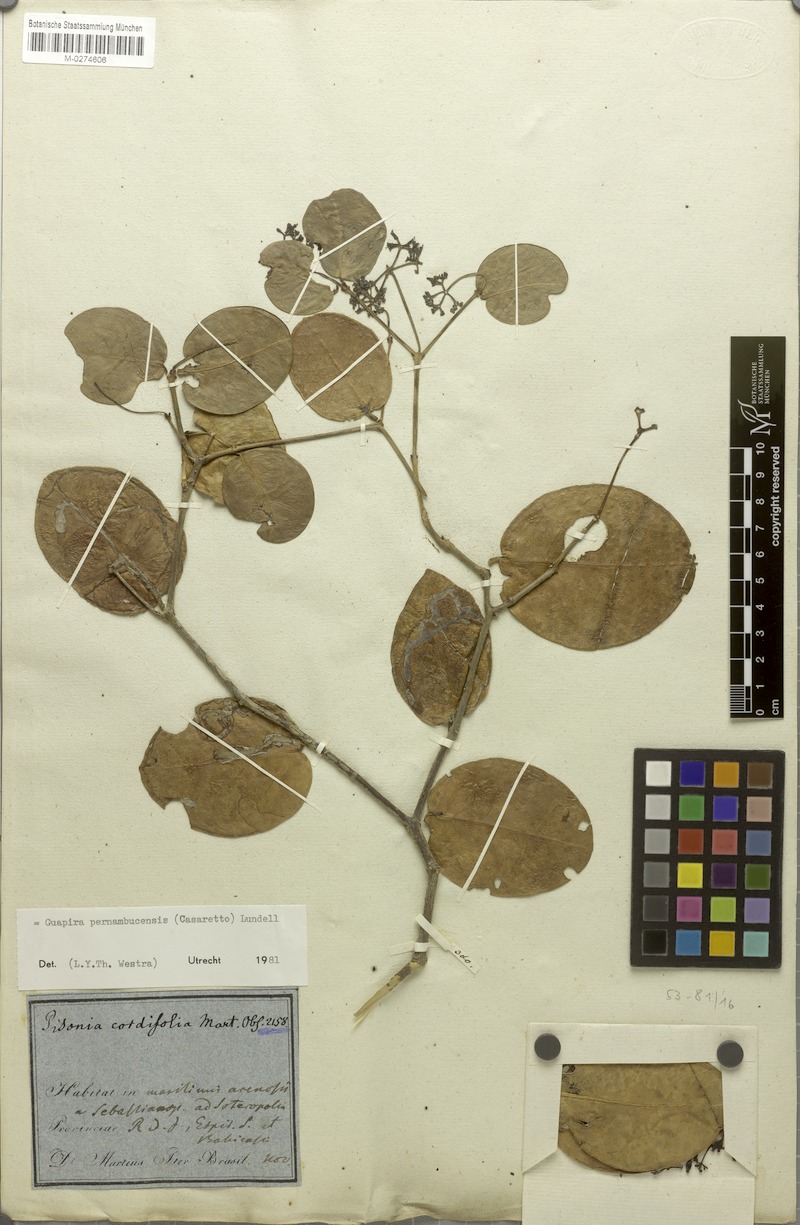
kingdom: Plantae
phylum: Tracheophyta
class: Magnoliopsida
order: Caryophyllales
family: Nyctaginaceae
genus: Guapira
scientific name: Guapira pernambucensis
